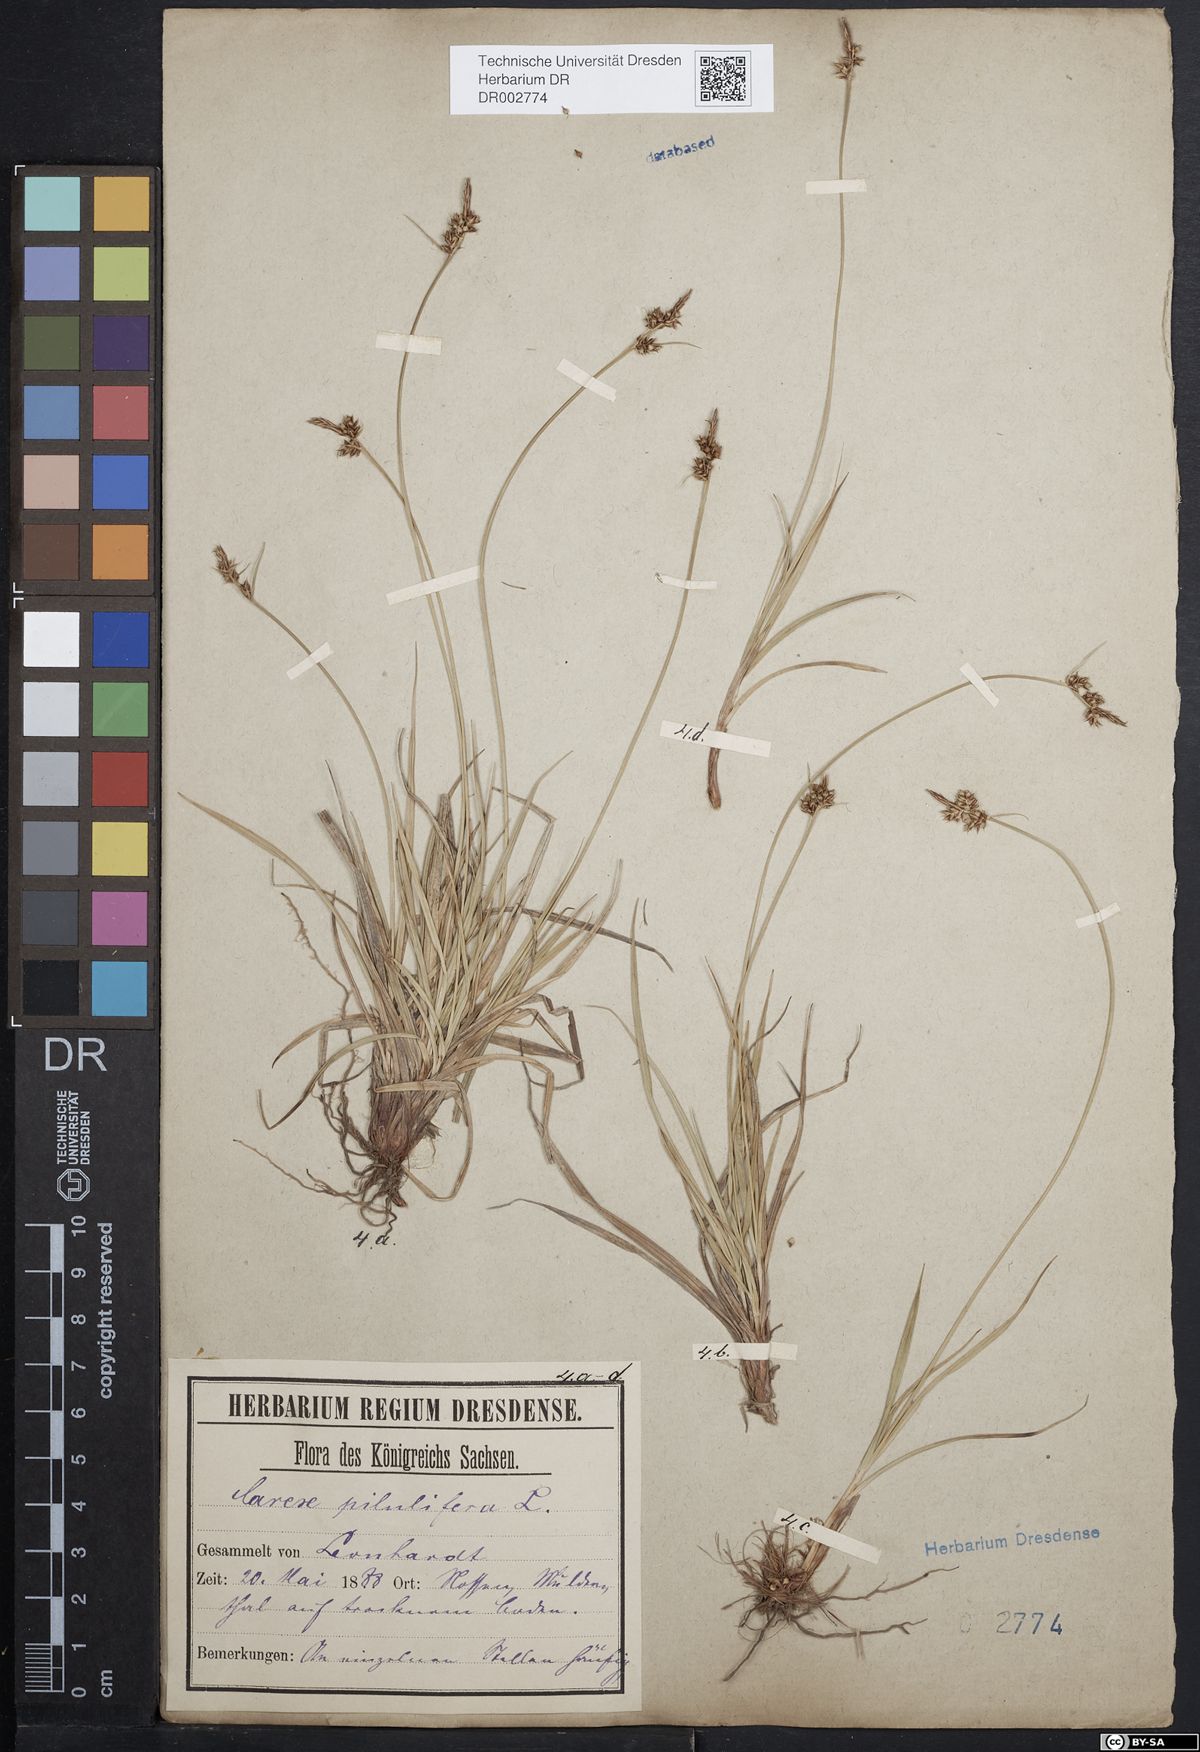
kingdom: Plantae
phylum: Tracheophyta
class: Liliopsida
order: Poales
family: Cyperaceae
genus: Carex
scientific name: Carex caryophyllea
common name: Spring sedge
